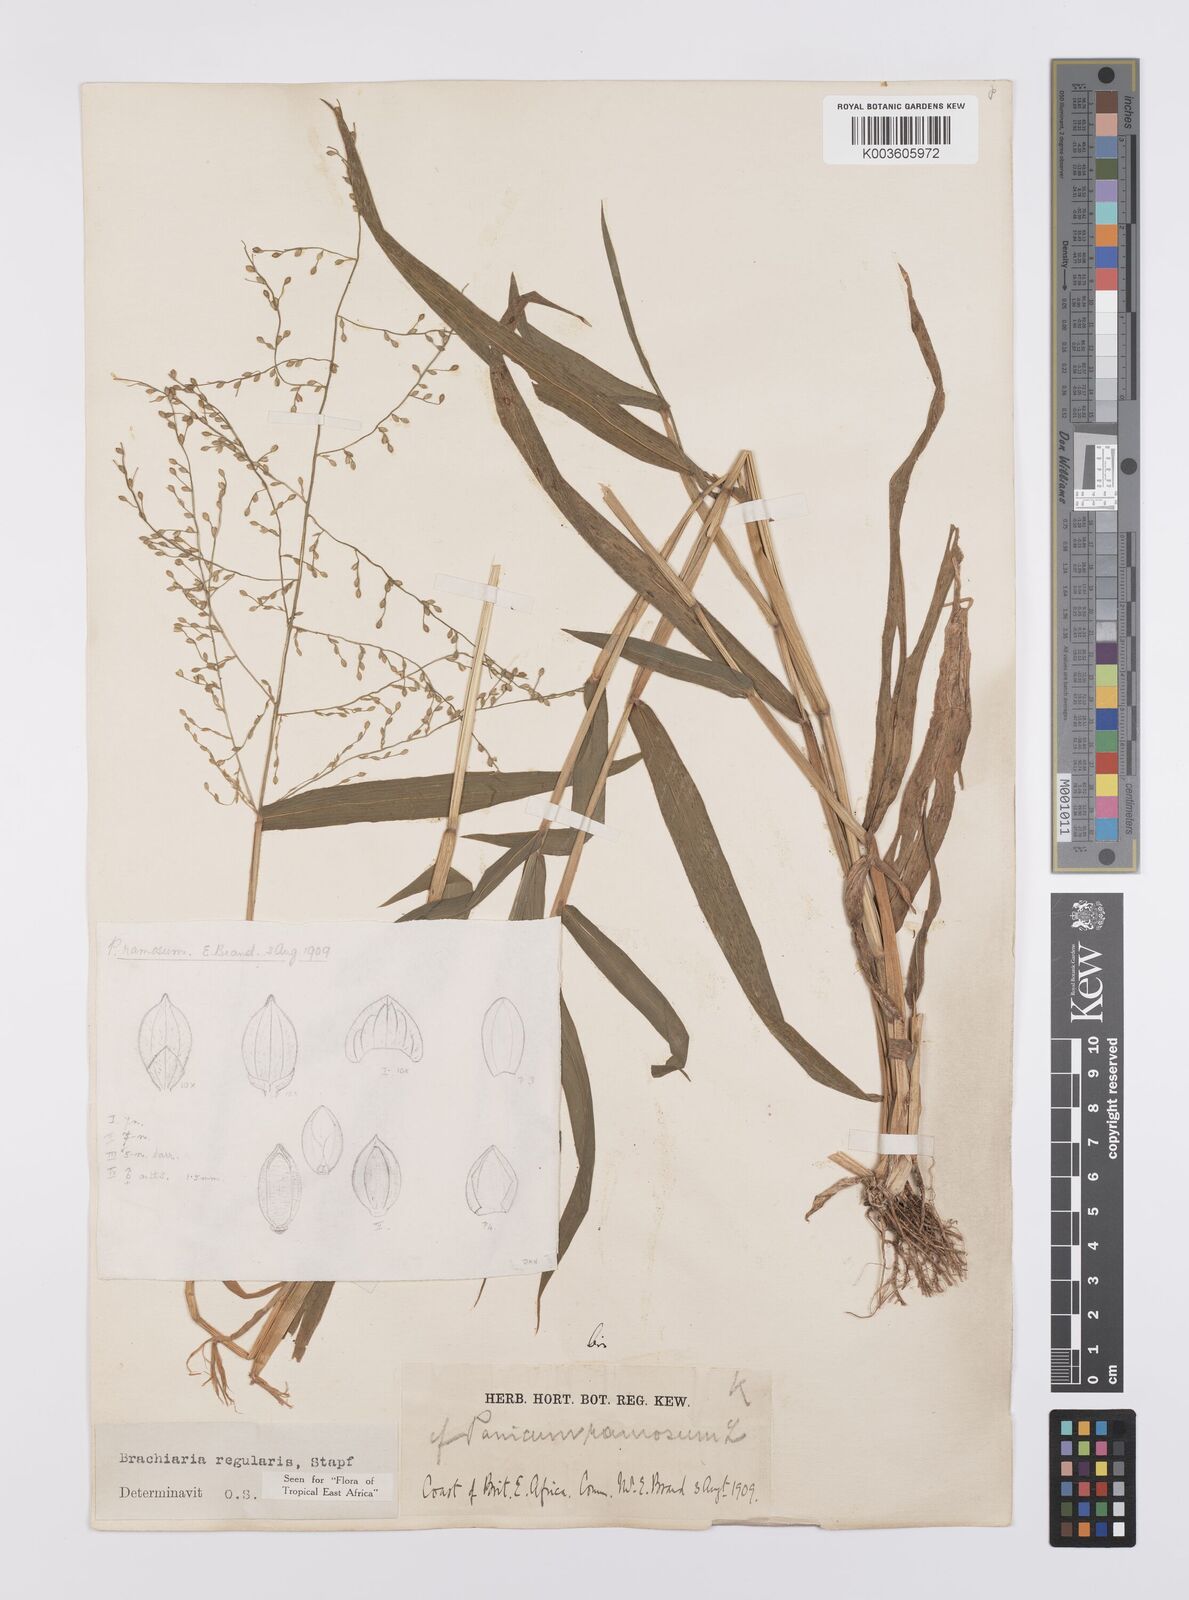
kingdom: Plantae
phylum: Tracheophyta
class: Liliopsida
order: Poales
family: Poaceae
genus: Urochloa
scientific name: Urochloa deflexa
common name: Guinea millet
